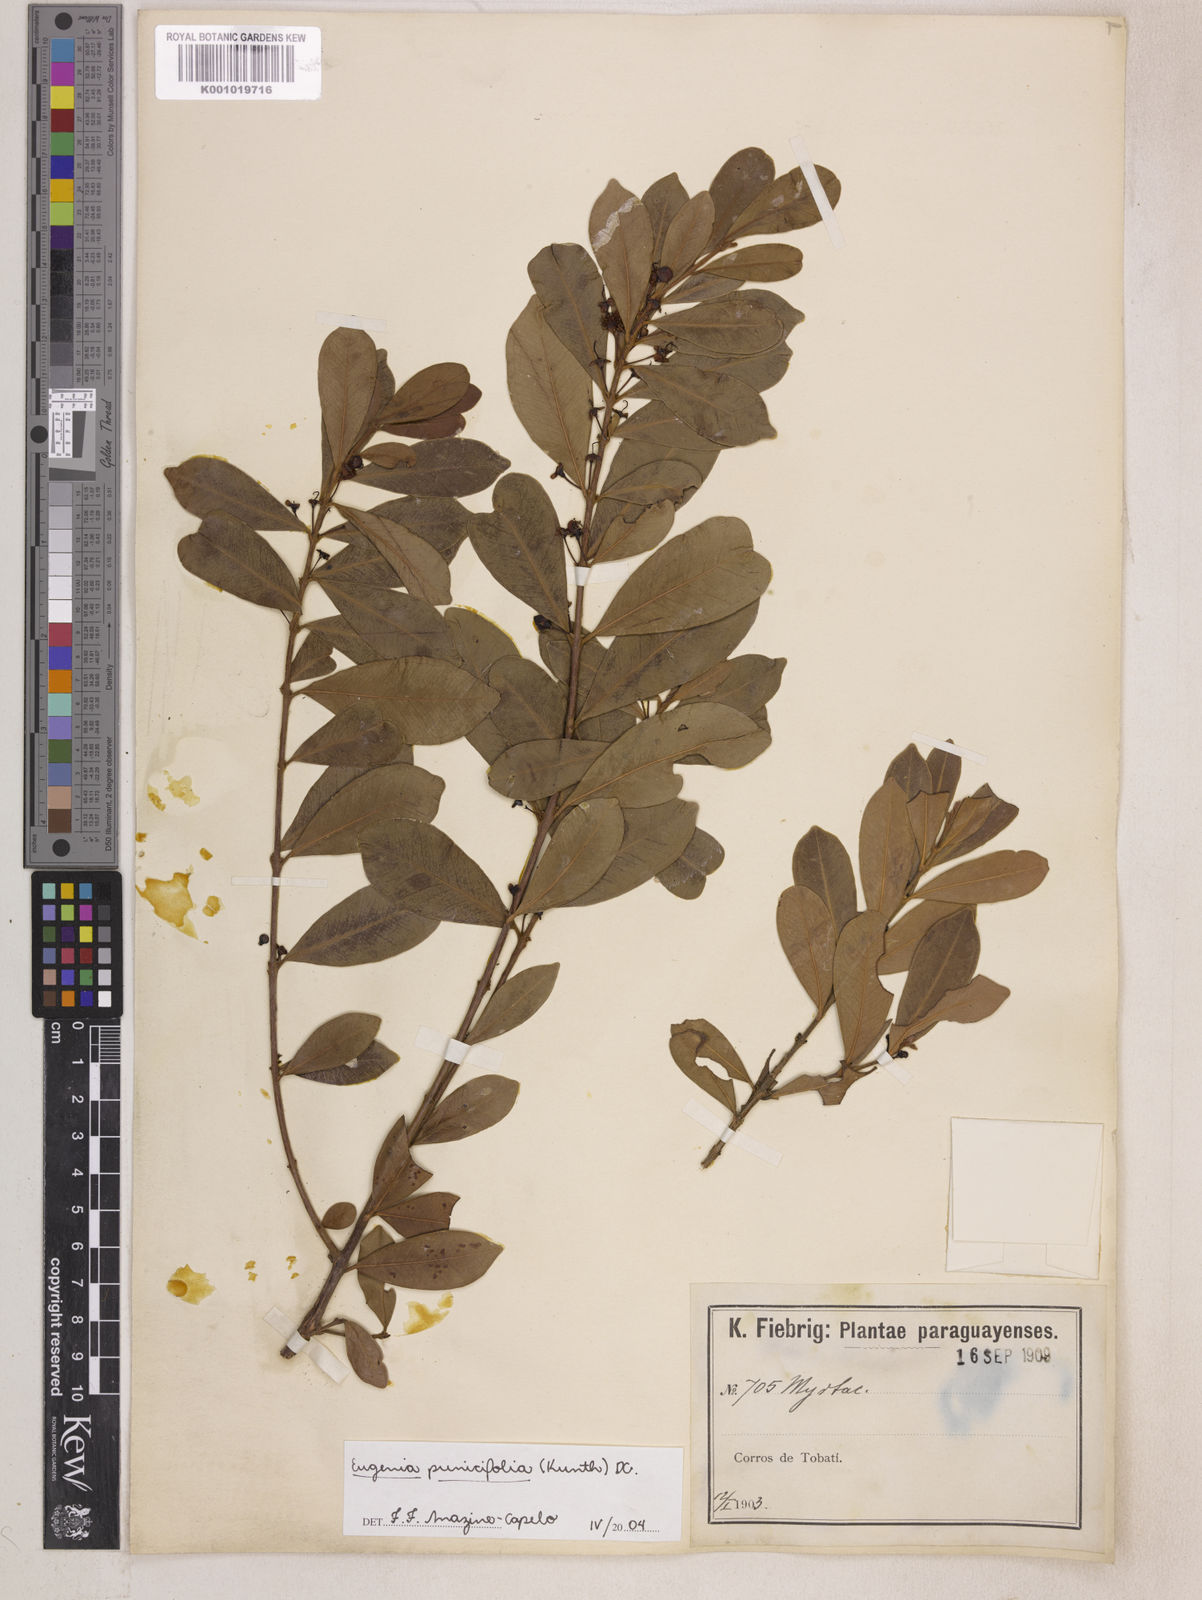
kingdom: Plantae
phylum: Tracheophyta
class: Magnoliopsida
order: Myrtales
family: Myrtaceae
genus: Eugenia
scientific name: Eugenia punicifolia
